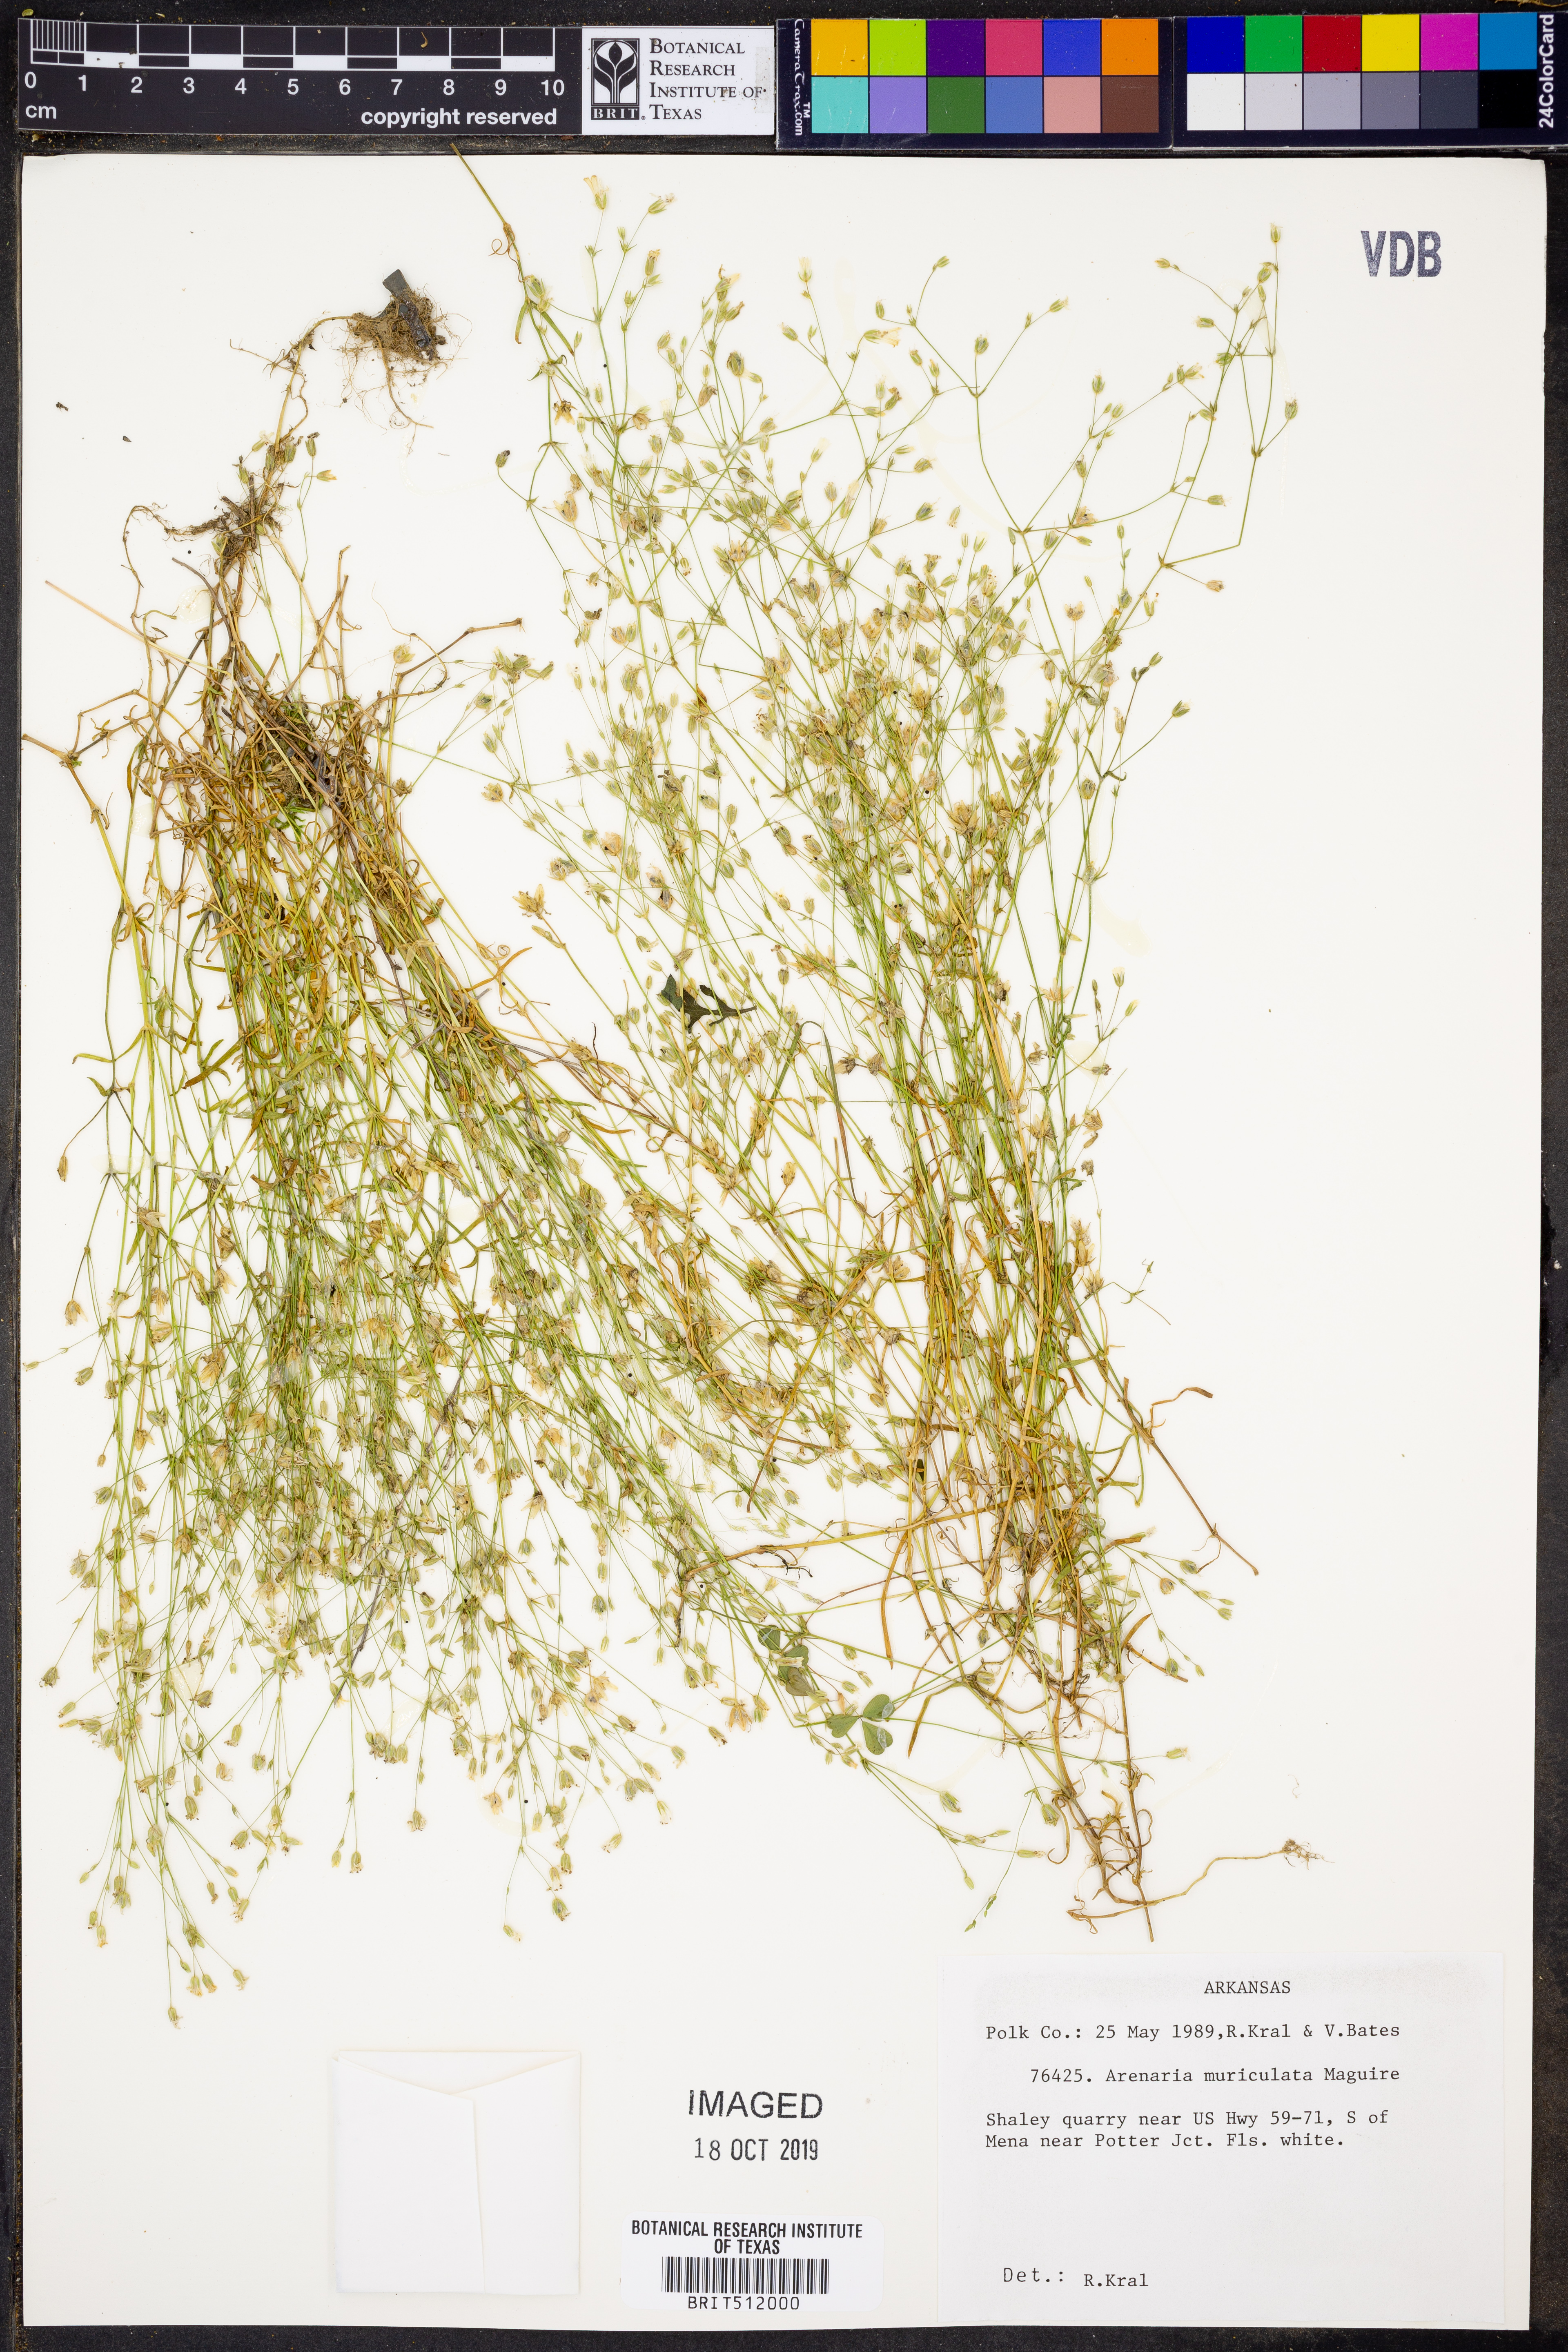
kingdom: Plantae
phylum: Tracheophyta
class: Magnoliopsida
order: Caryophyllales
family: Caryophyllaceae
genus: Mononeuria
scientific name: Mononeuria muscorum
